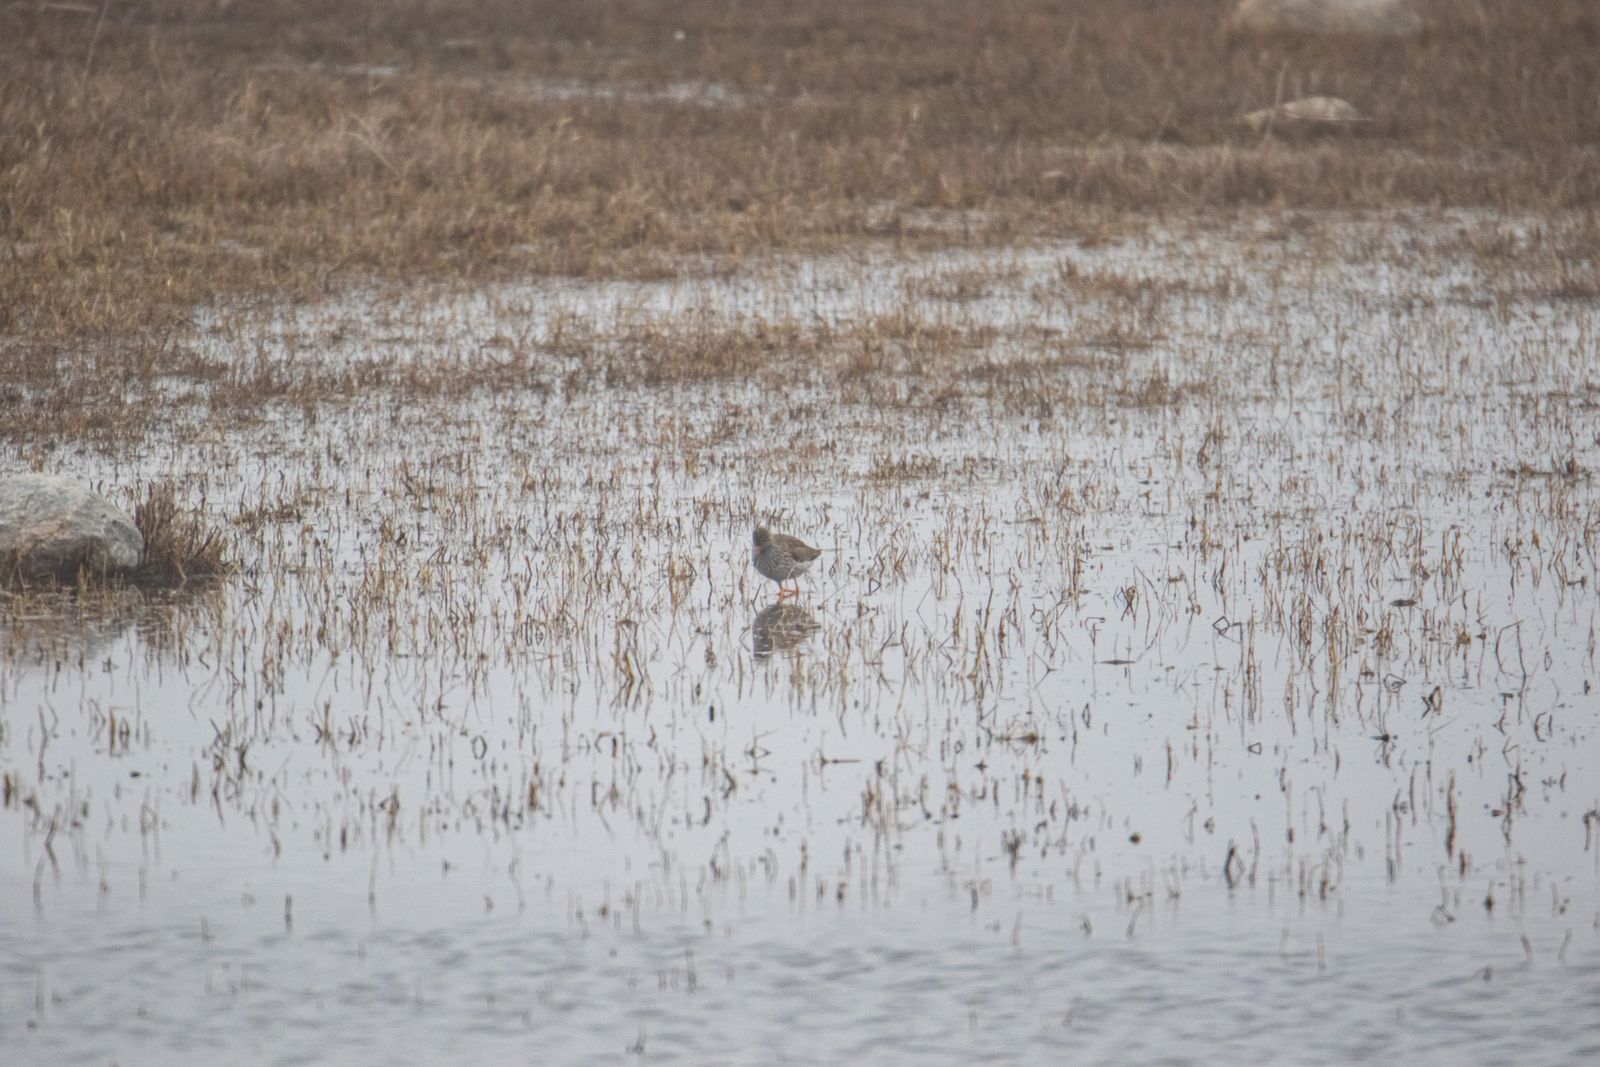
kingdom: Animalia
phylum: Chordata
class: Aves
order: Charadriiformes
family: Scolopacidae
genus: Tringa
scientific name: Tringa totanus
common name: Common redshank
